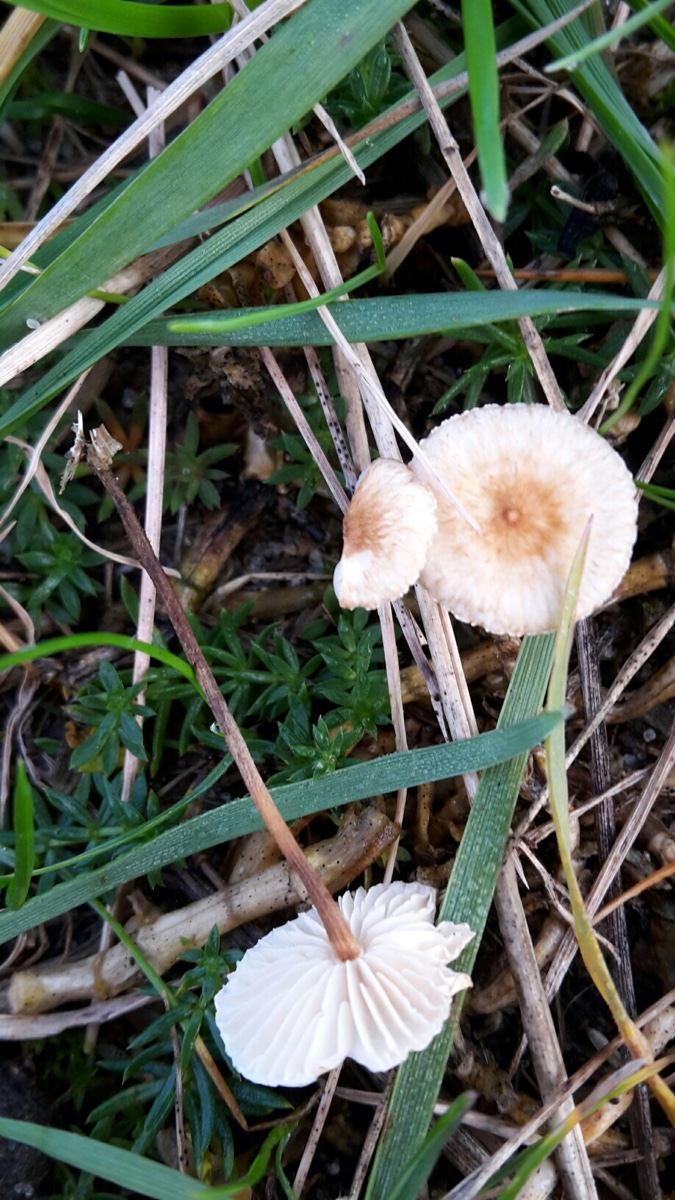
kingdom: Fungi
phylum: Basidiomycota
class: Agaricomycetes
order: Agaricales
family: Marasmiaceae
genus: Crinipellis
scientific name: Crinipellis scabella
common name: børstefod
